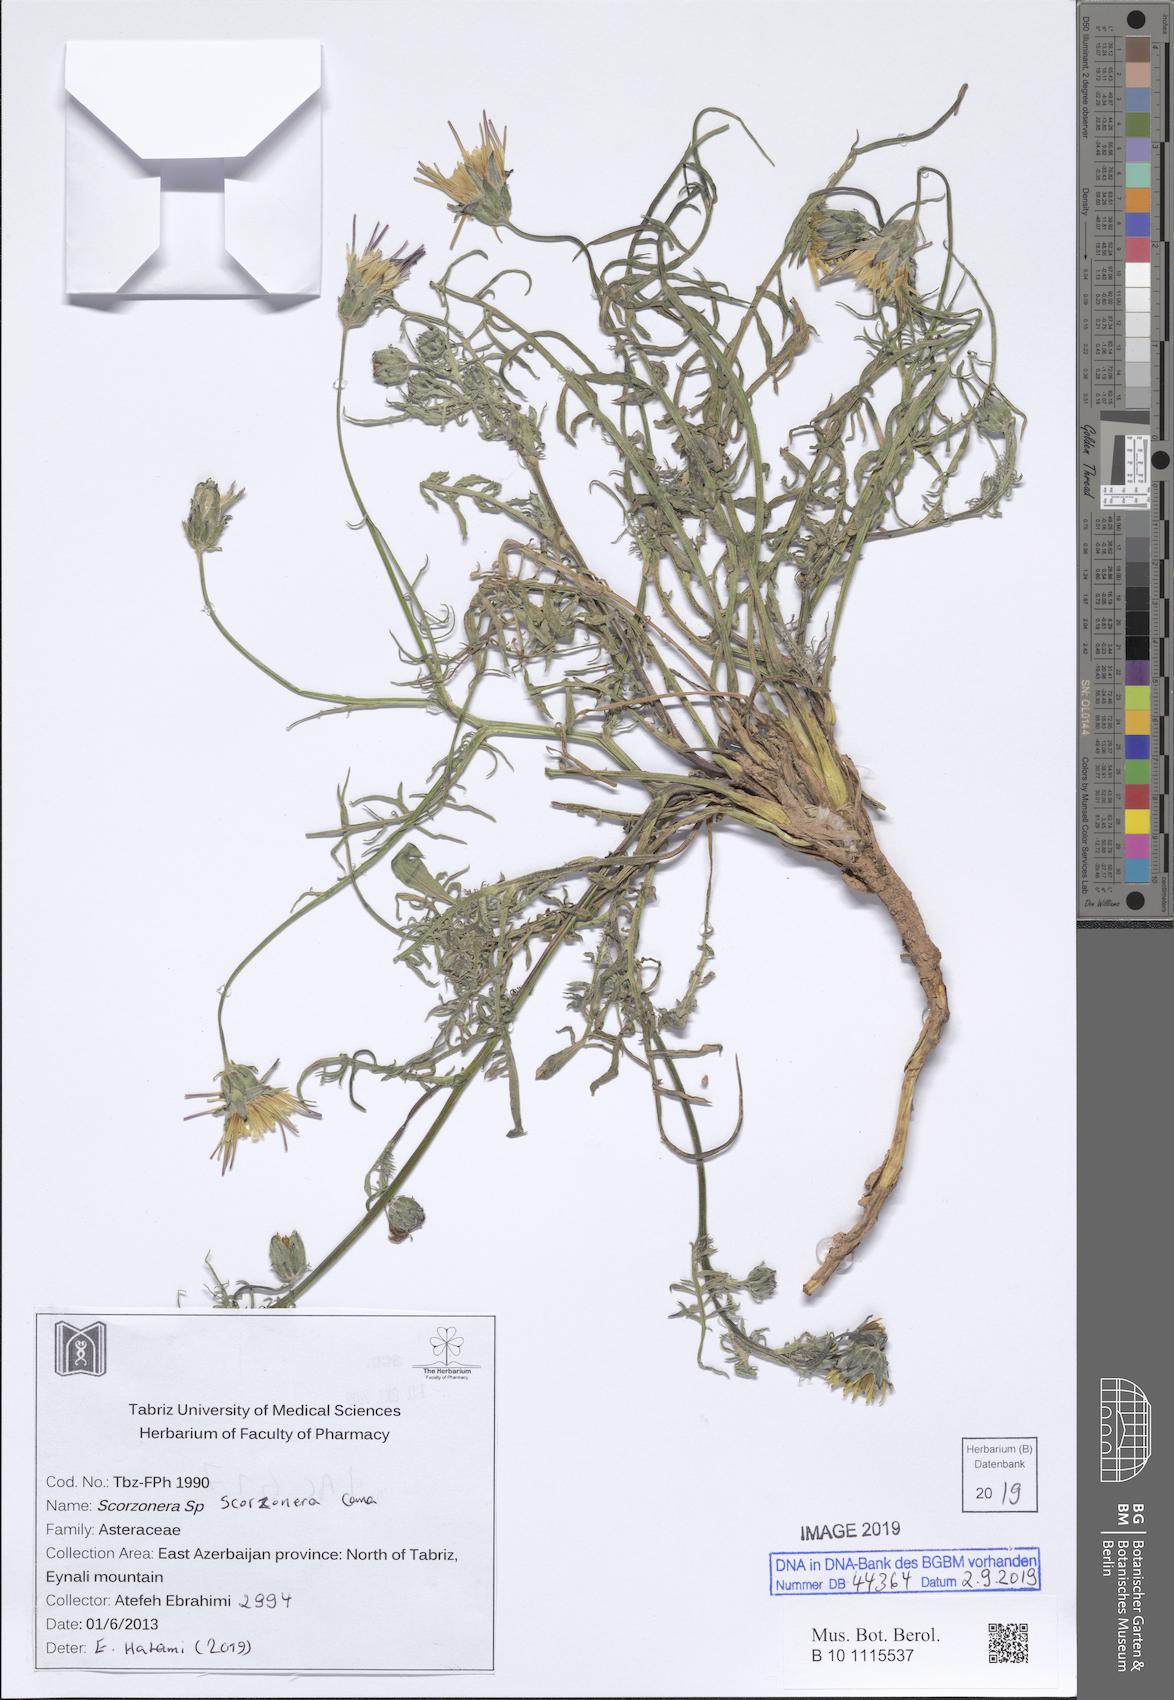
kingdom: Plantae
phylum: Tracheophyta
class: Magnoliopsida
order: Asterales
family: Asteraceae
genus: Candollea
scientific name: Candollea szowitzii
